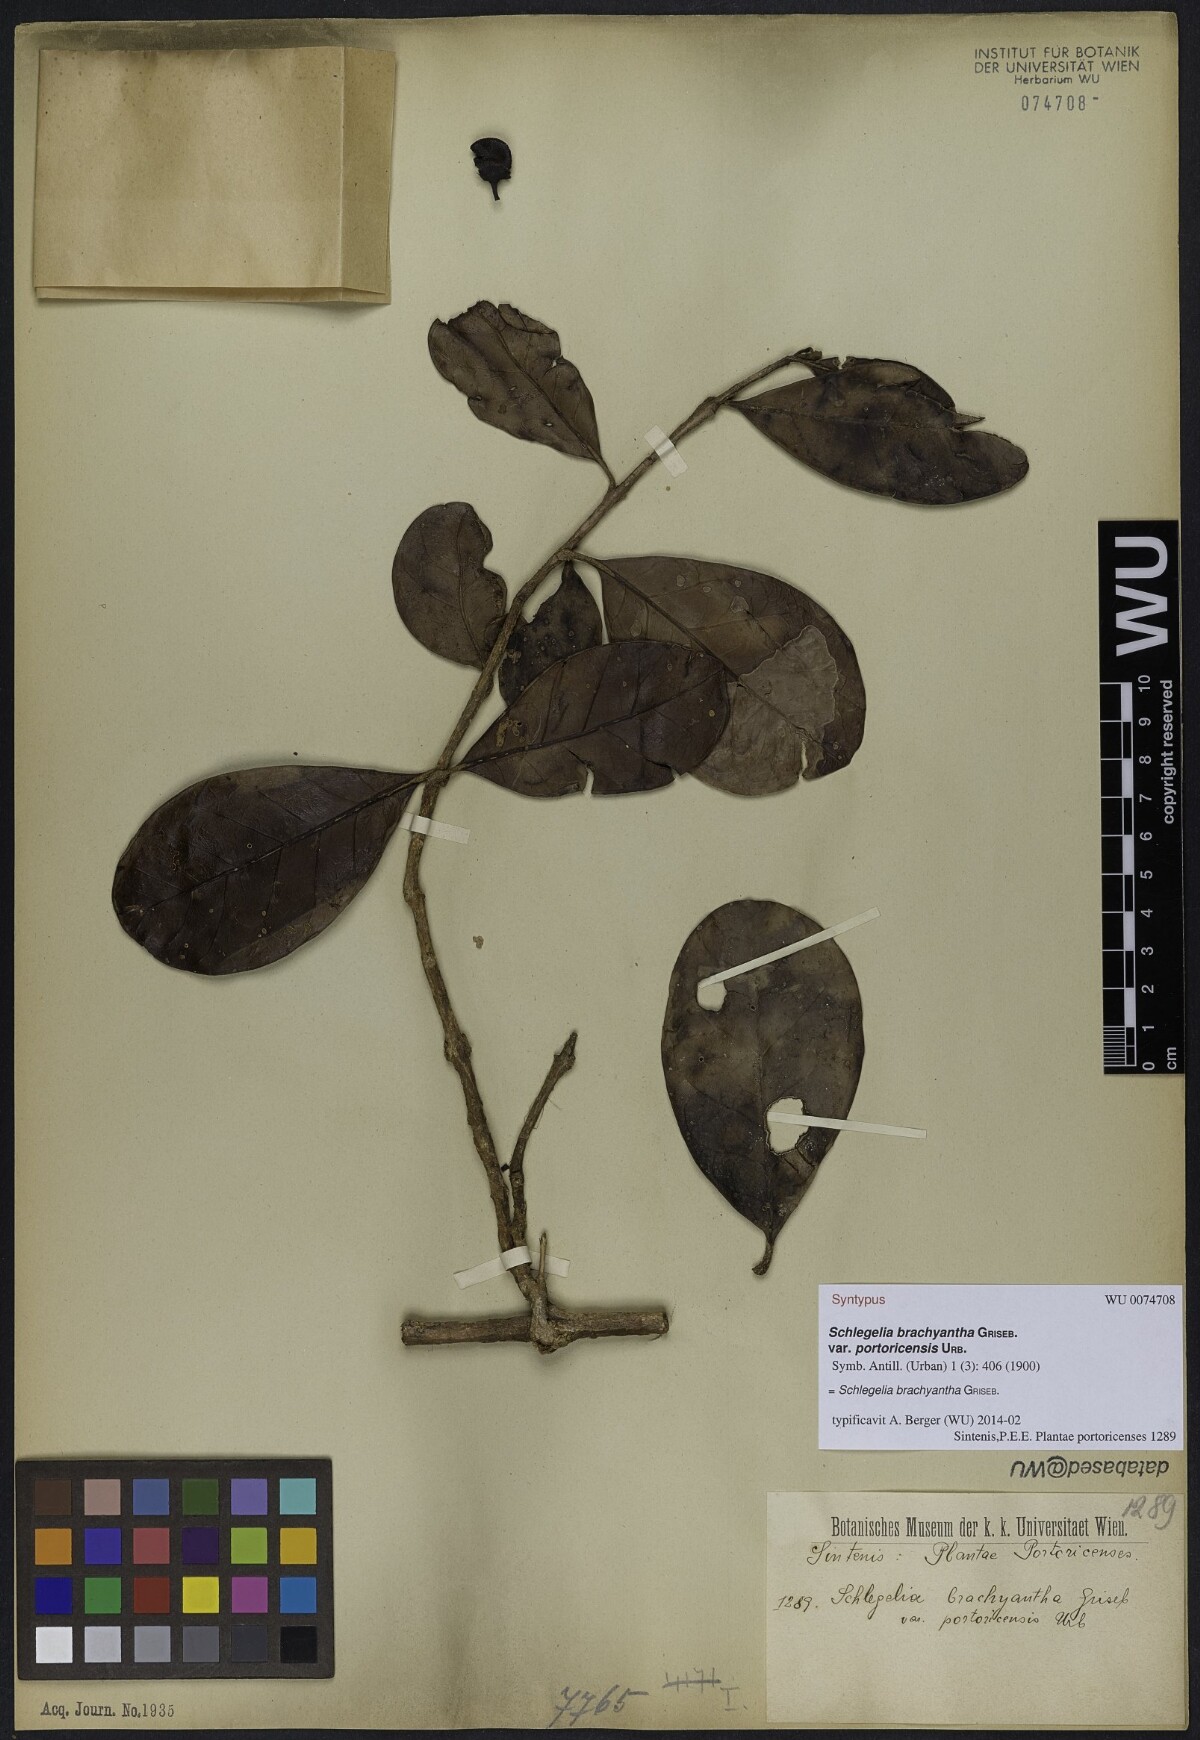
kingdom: Plantae
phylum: Tracheophyta
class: Magnoliopsida
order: Lamiales
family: Schlegeliaceae
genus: Schlegelia
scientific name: Schlegelia brachyantha
